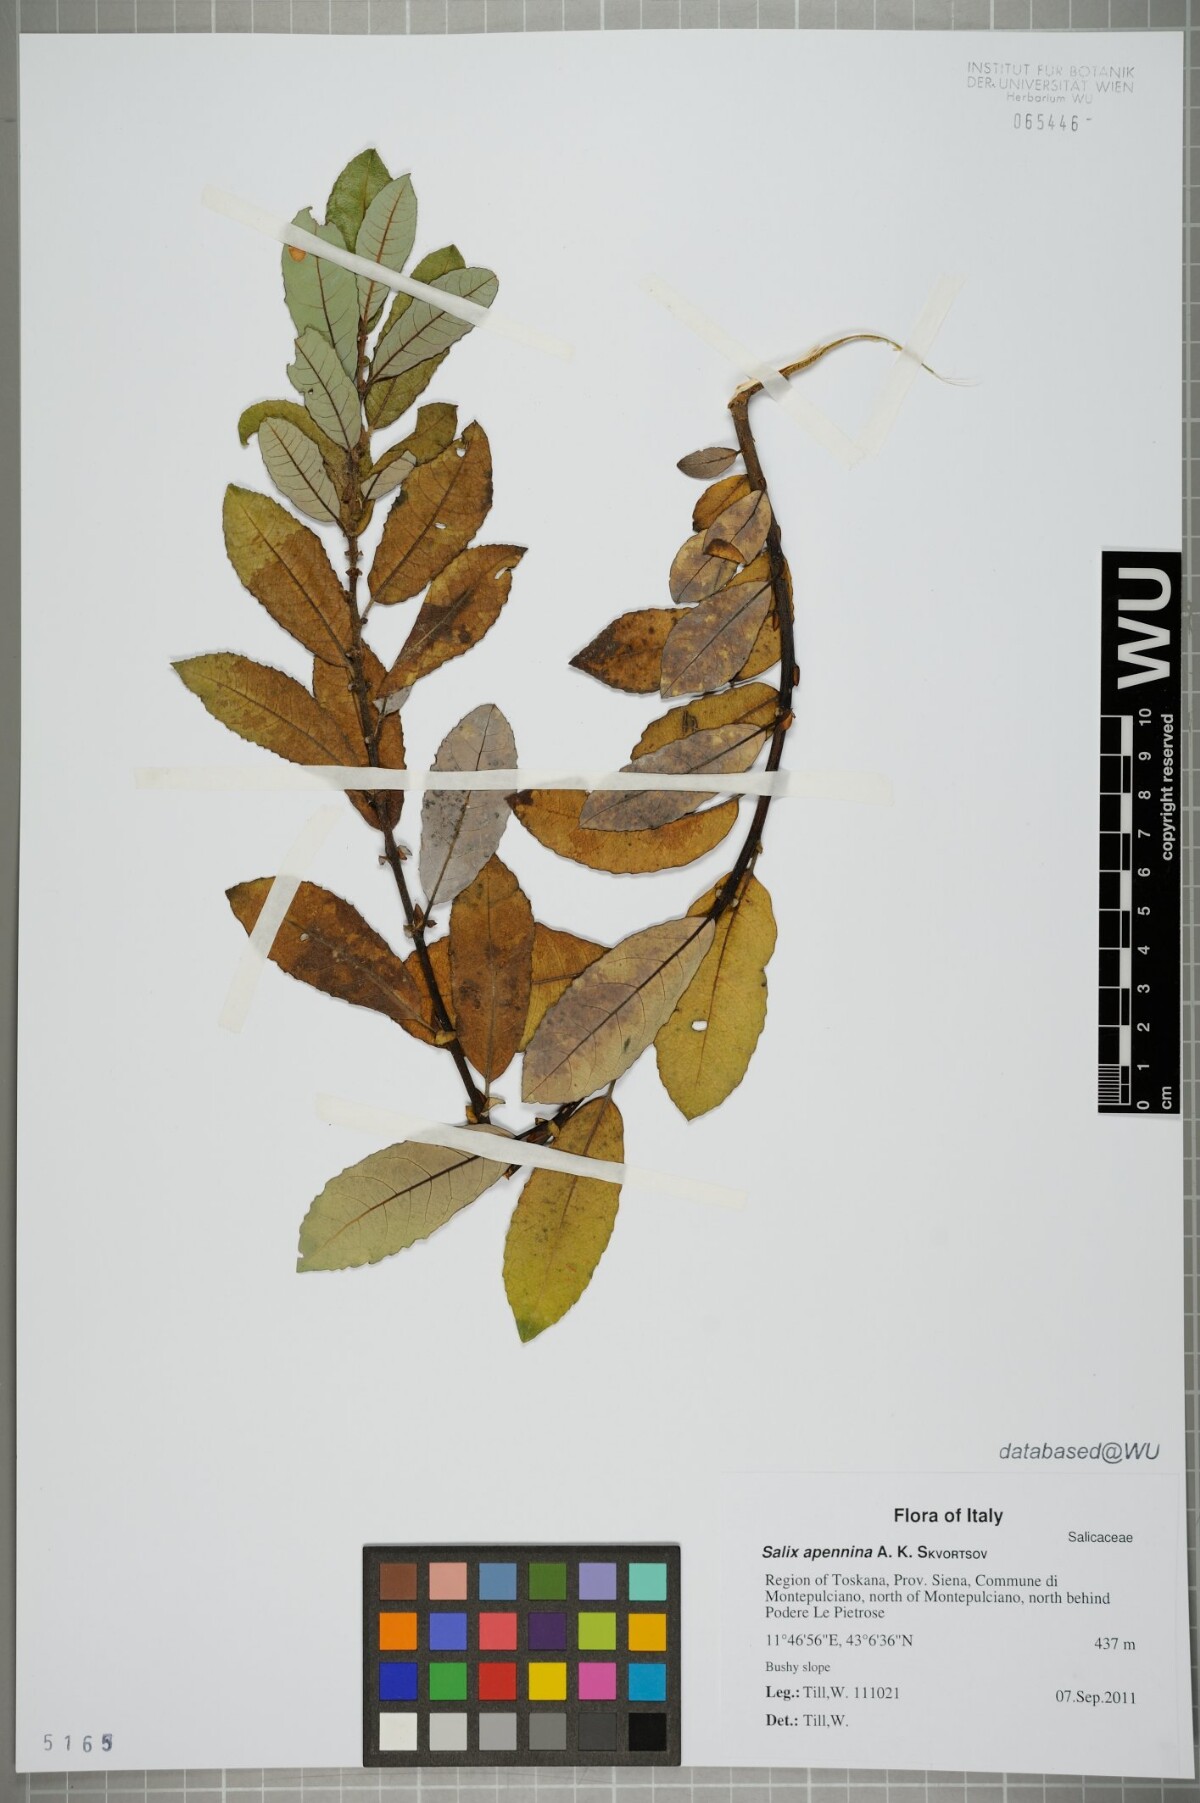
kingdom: Plantae
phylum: Tracheophyta
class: Magnoliopsida
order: Malpighiales
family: Salicaceae
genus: Salix
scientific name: Salix apennina
